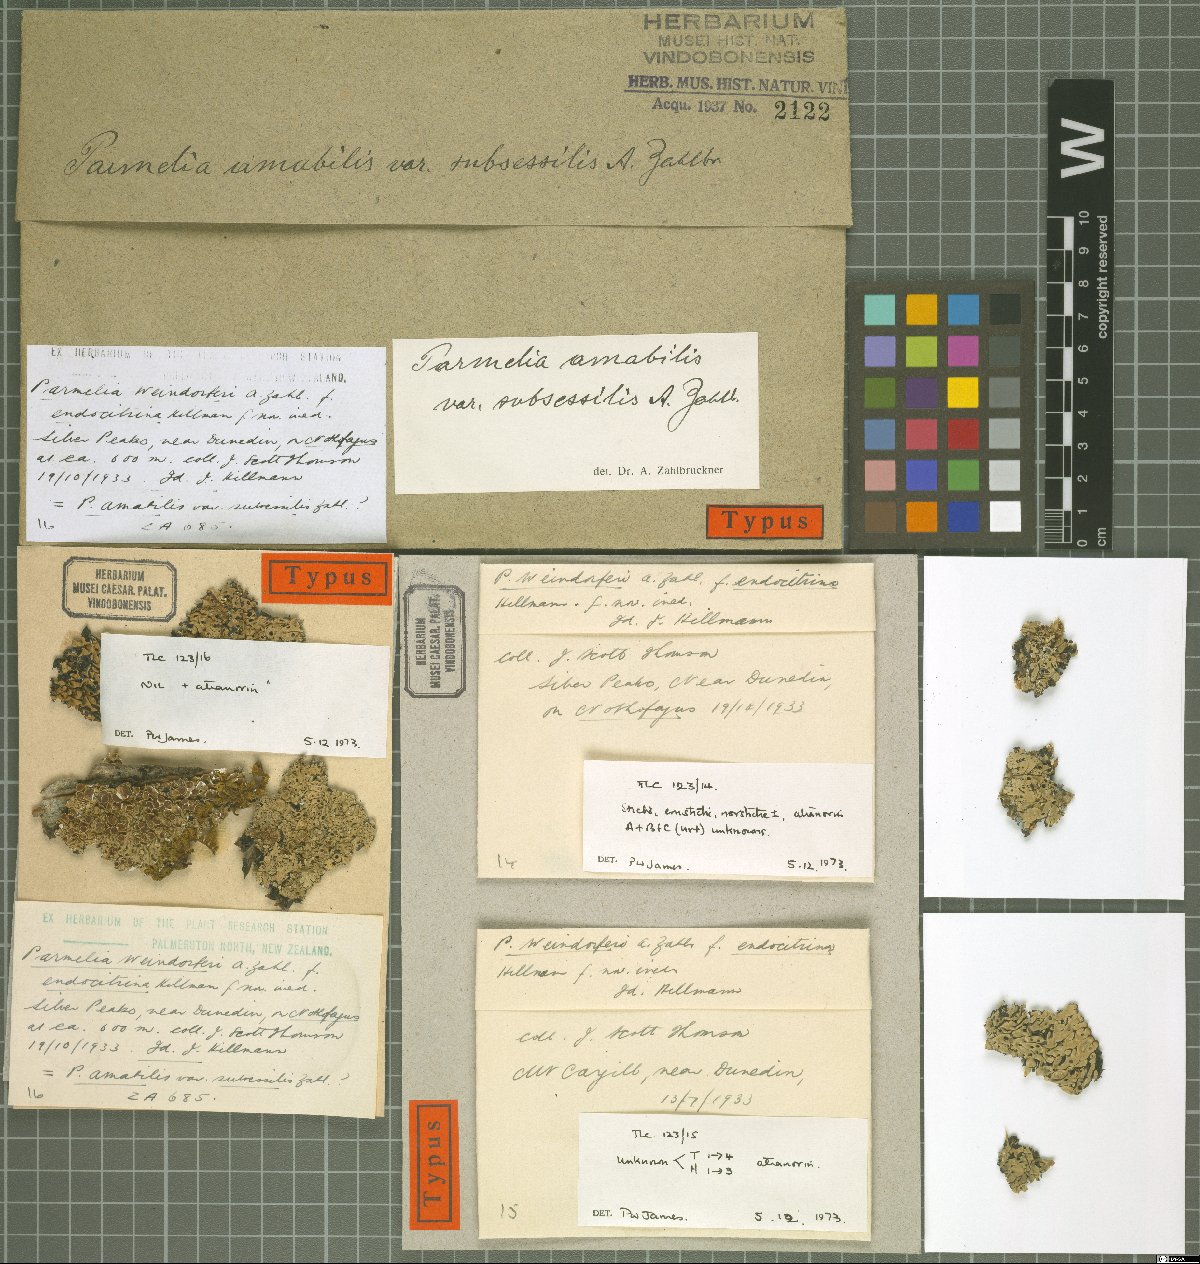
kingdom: Fungi
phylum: Ascomycota
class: Lecanoromycetes
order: Lecanorales
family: Parmeliaceae
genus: Parmelia
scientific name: Parmelia
